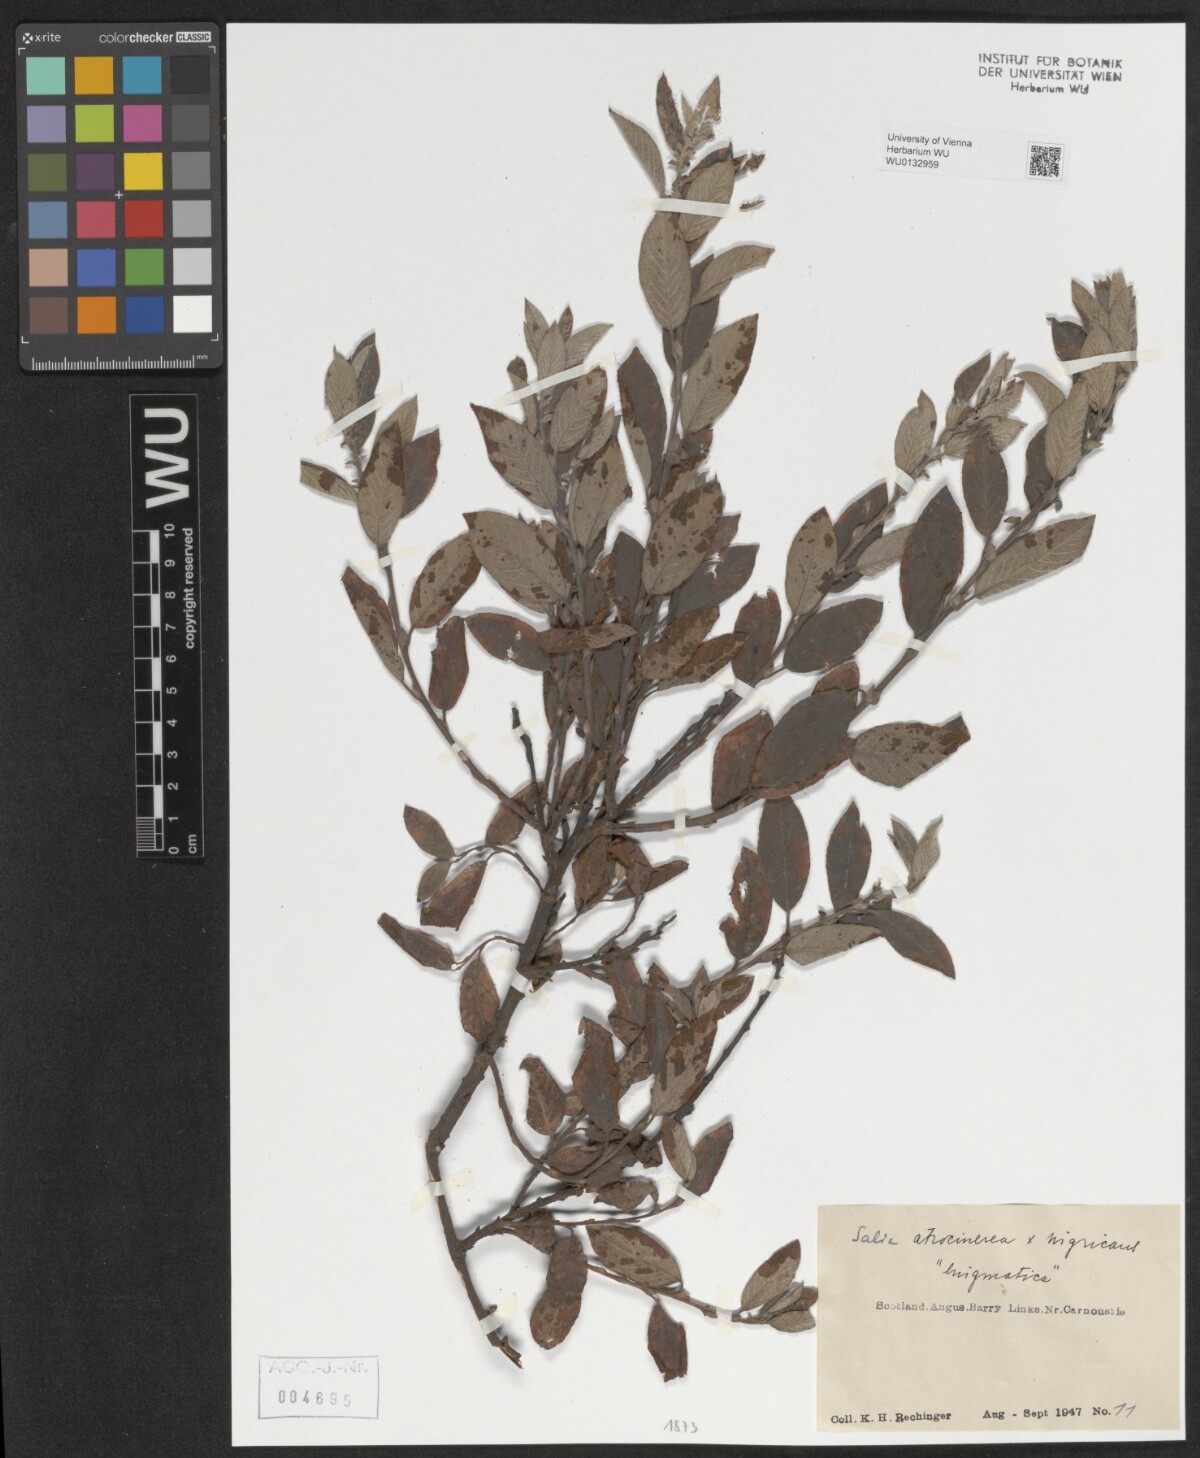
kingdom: Plantae
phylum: Tracheophyta
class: Magnoliopsida
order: Malpighiales
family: Salicaceae
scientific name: Salicaceae
